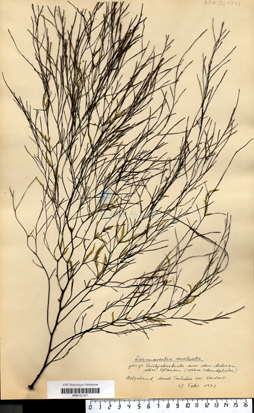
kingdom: Chromista
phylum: Ochrophyta
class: Phaeophyceae
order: Desmarestiales
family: Desmarestiaceae
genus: Desmarestia
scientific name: Desmarestia aculeata
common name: Witch's hair
